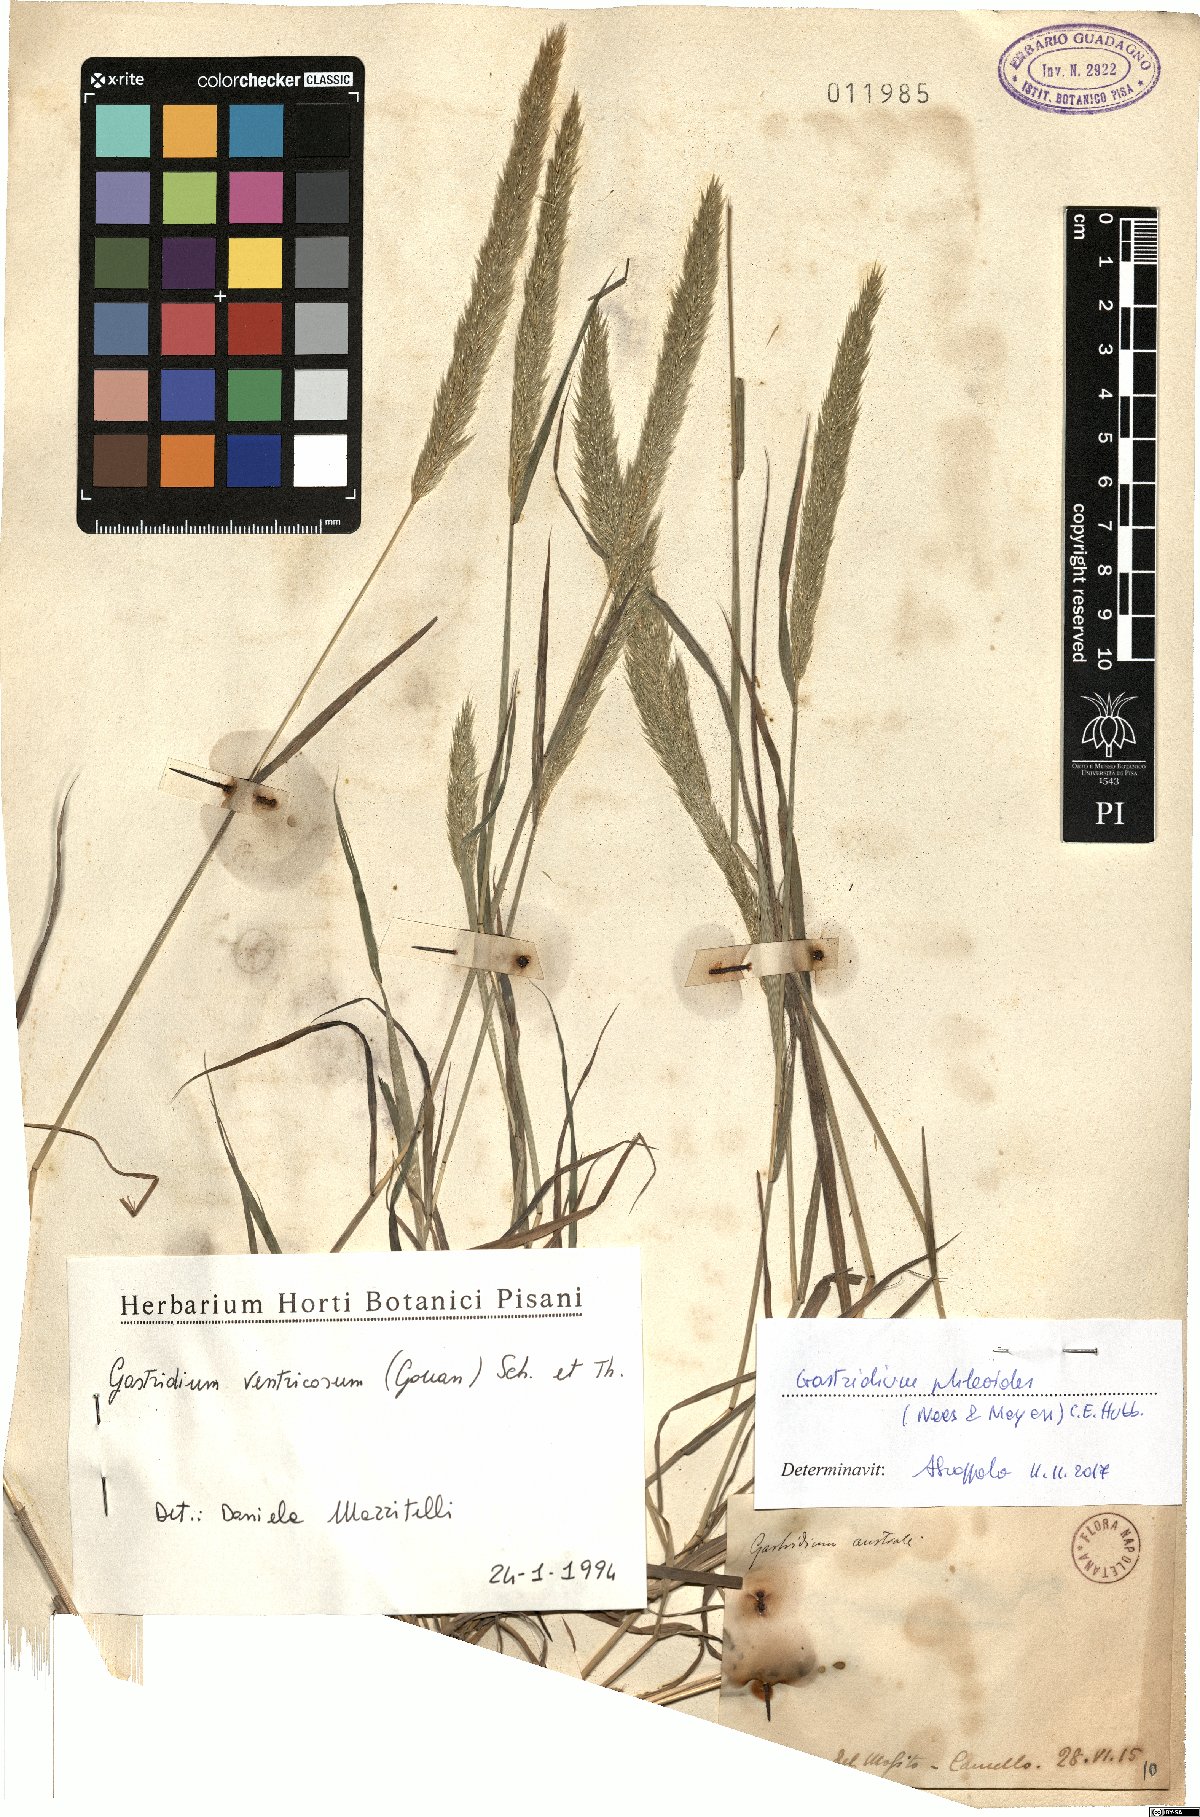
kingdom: Plantae
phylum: Tracheophyta
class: Liliopsida
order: Poales
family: Poaceae
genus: Gastridium
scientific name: Gastridium phleoides
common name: Nit grass
